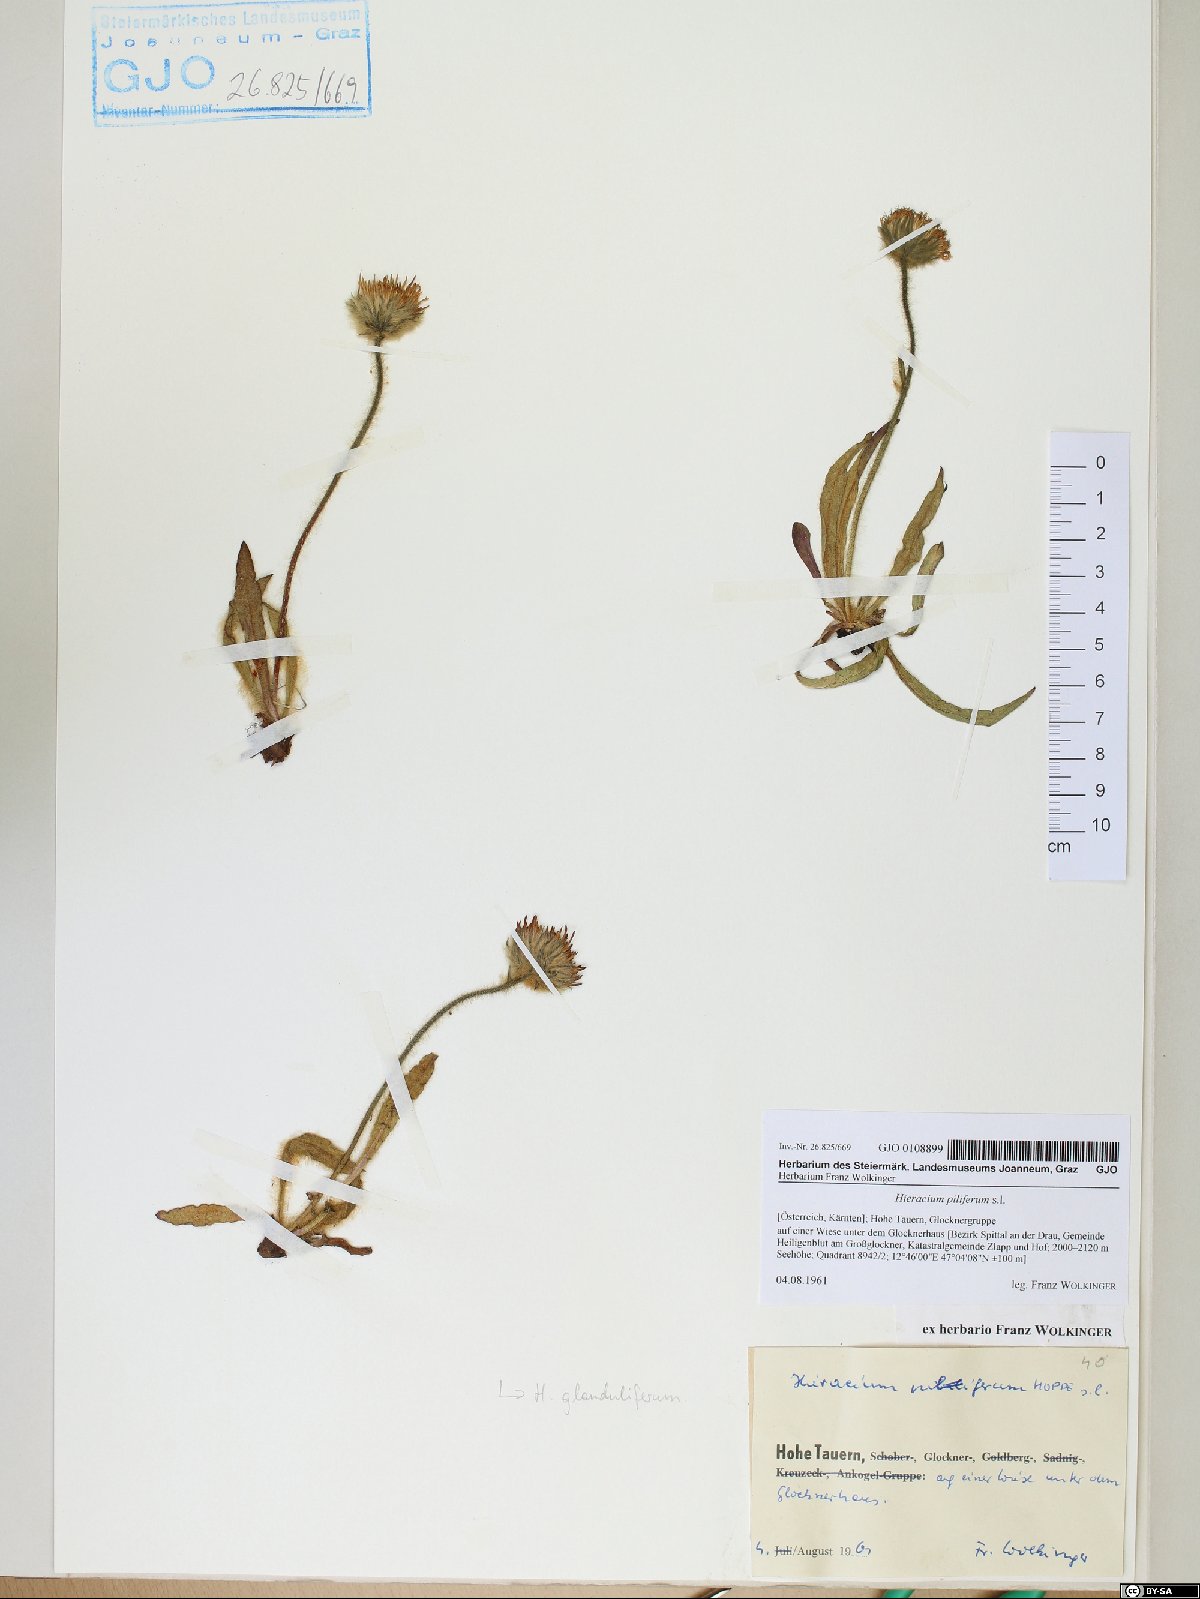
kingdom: Plantae
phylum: Tracheophyta
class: Magnoliopsida
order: Asterales
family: Asteraceae
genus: Hieracium
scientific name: Hieracium piliferum
